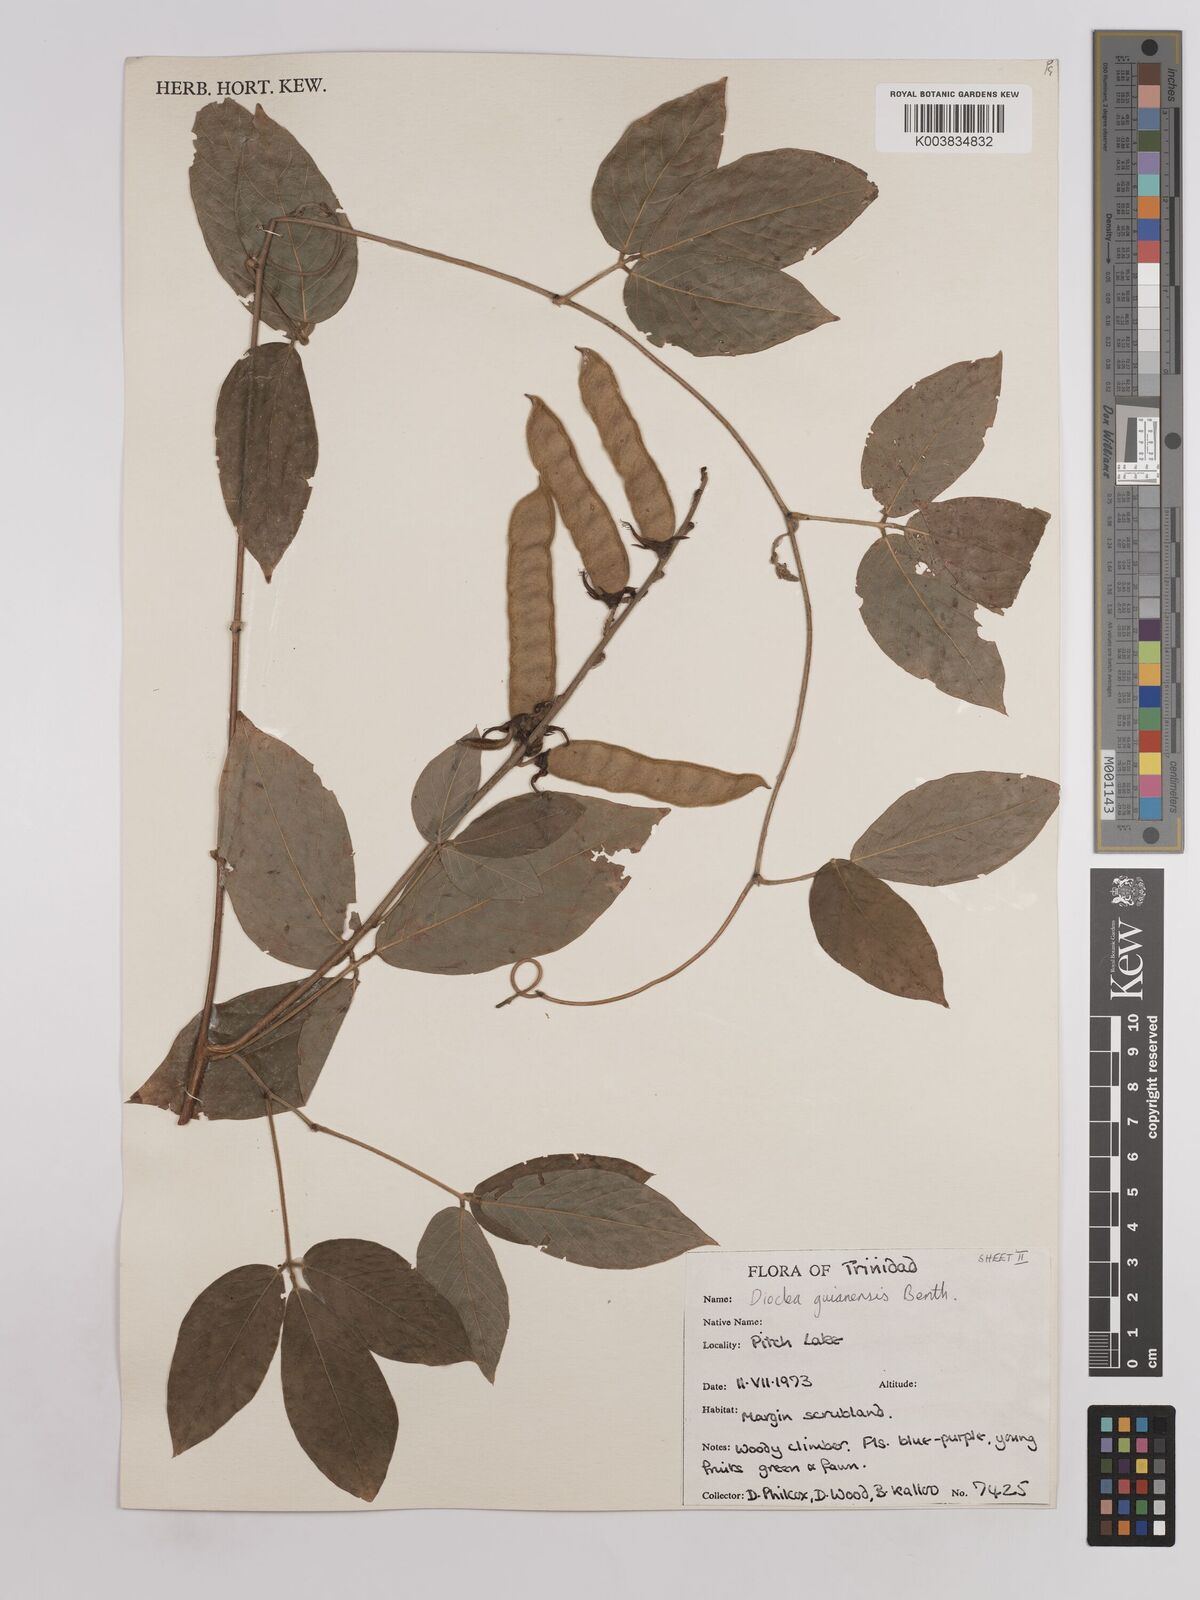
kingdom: Plantae
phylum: Tracheophyta
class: Magnoliopsida
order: Fabales
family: Fabaceae
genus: Dioclea
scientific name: Dioclea guianensis
